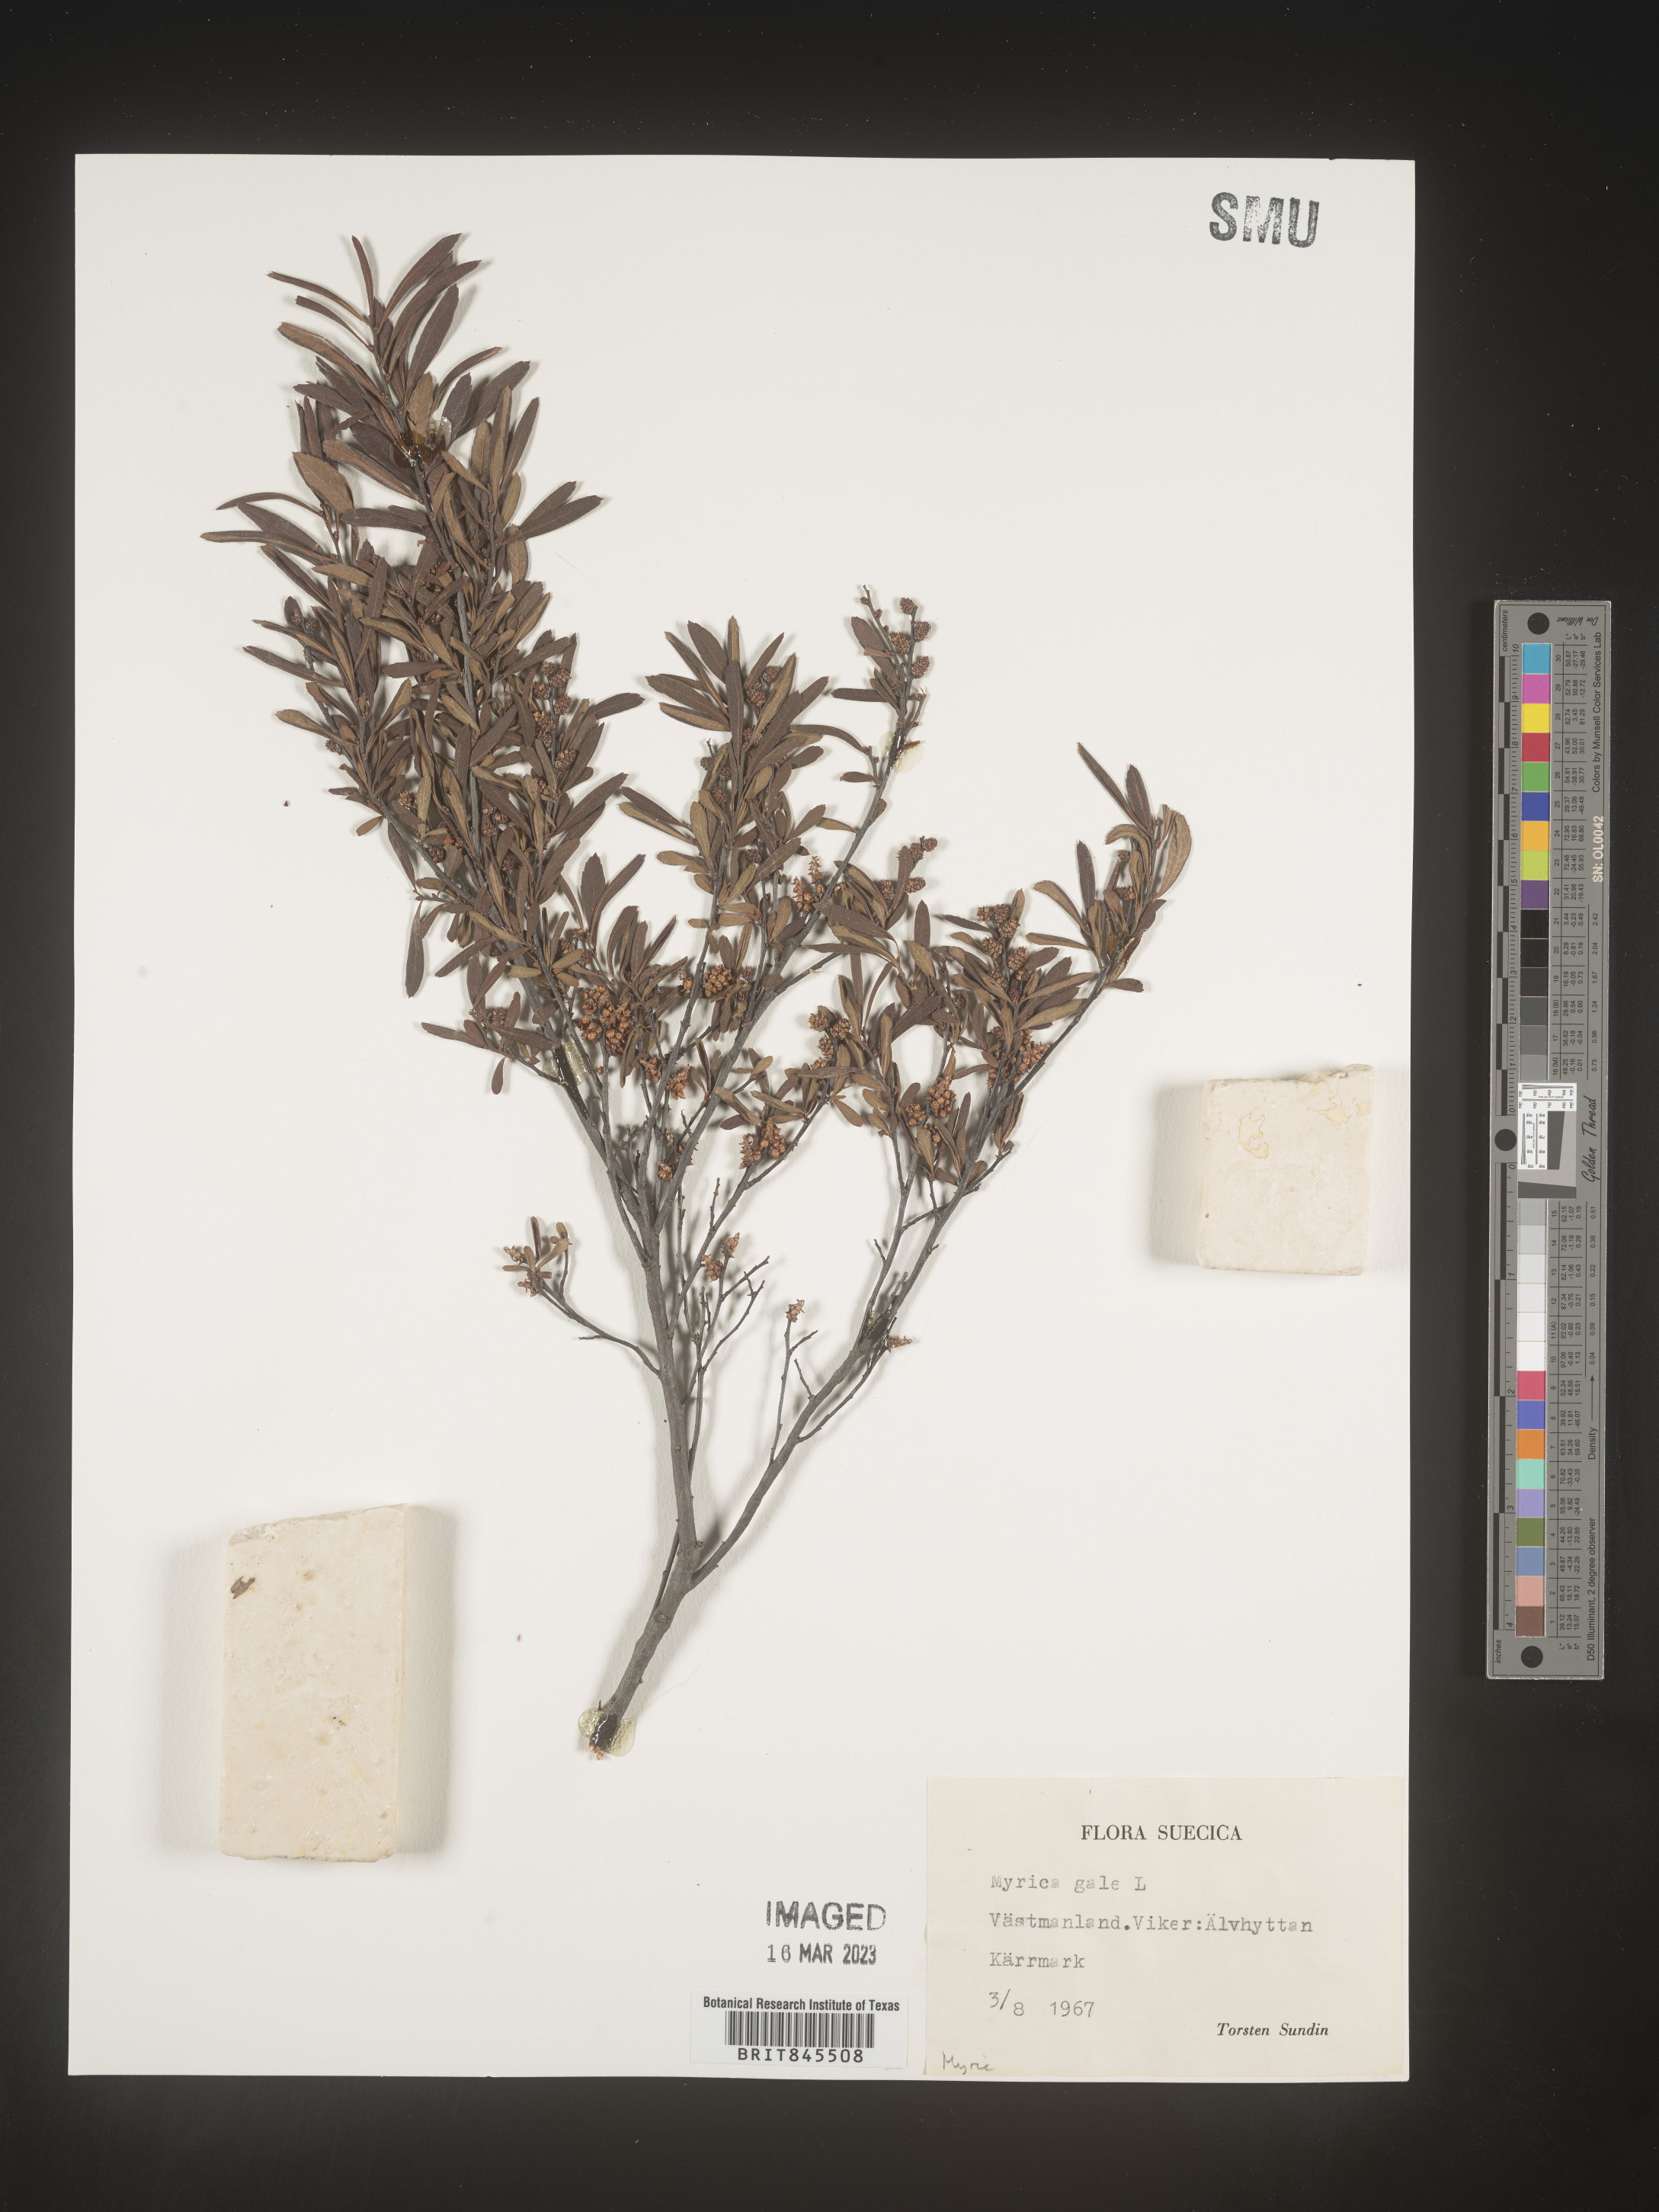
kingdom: Plantae
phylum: Tracheophyta
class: Magnoliopsida
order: Fagales
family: Myricaceae
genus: Myrica
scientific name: Myrica
